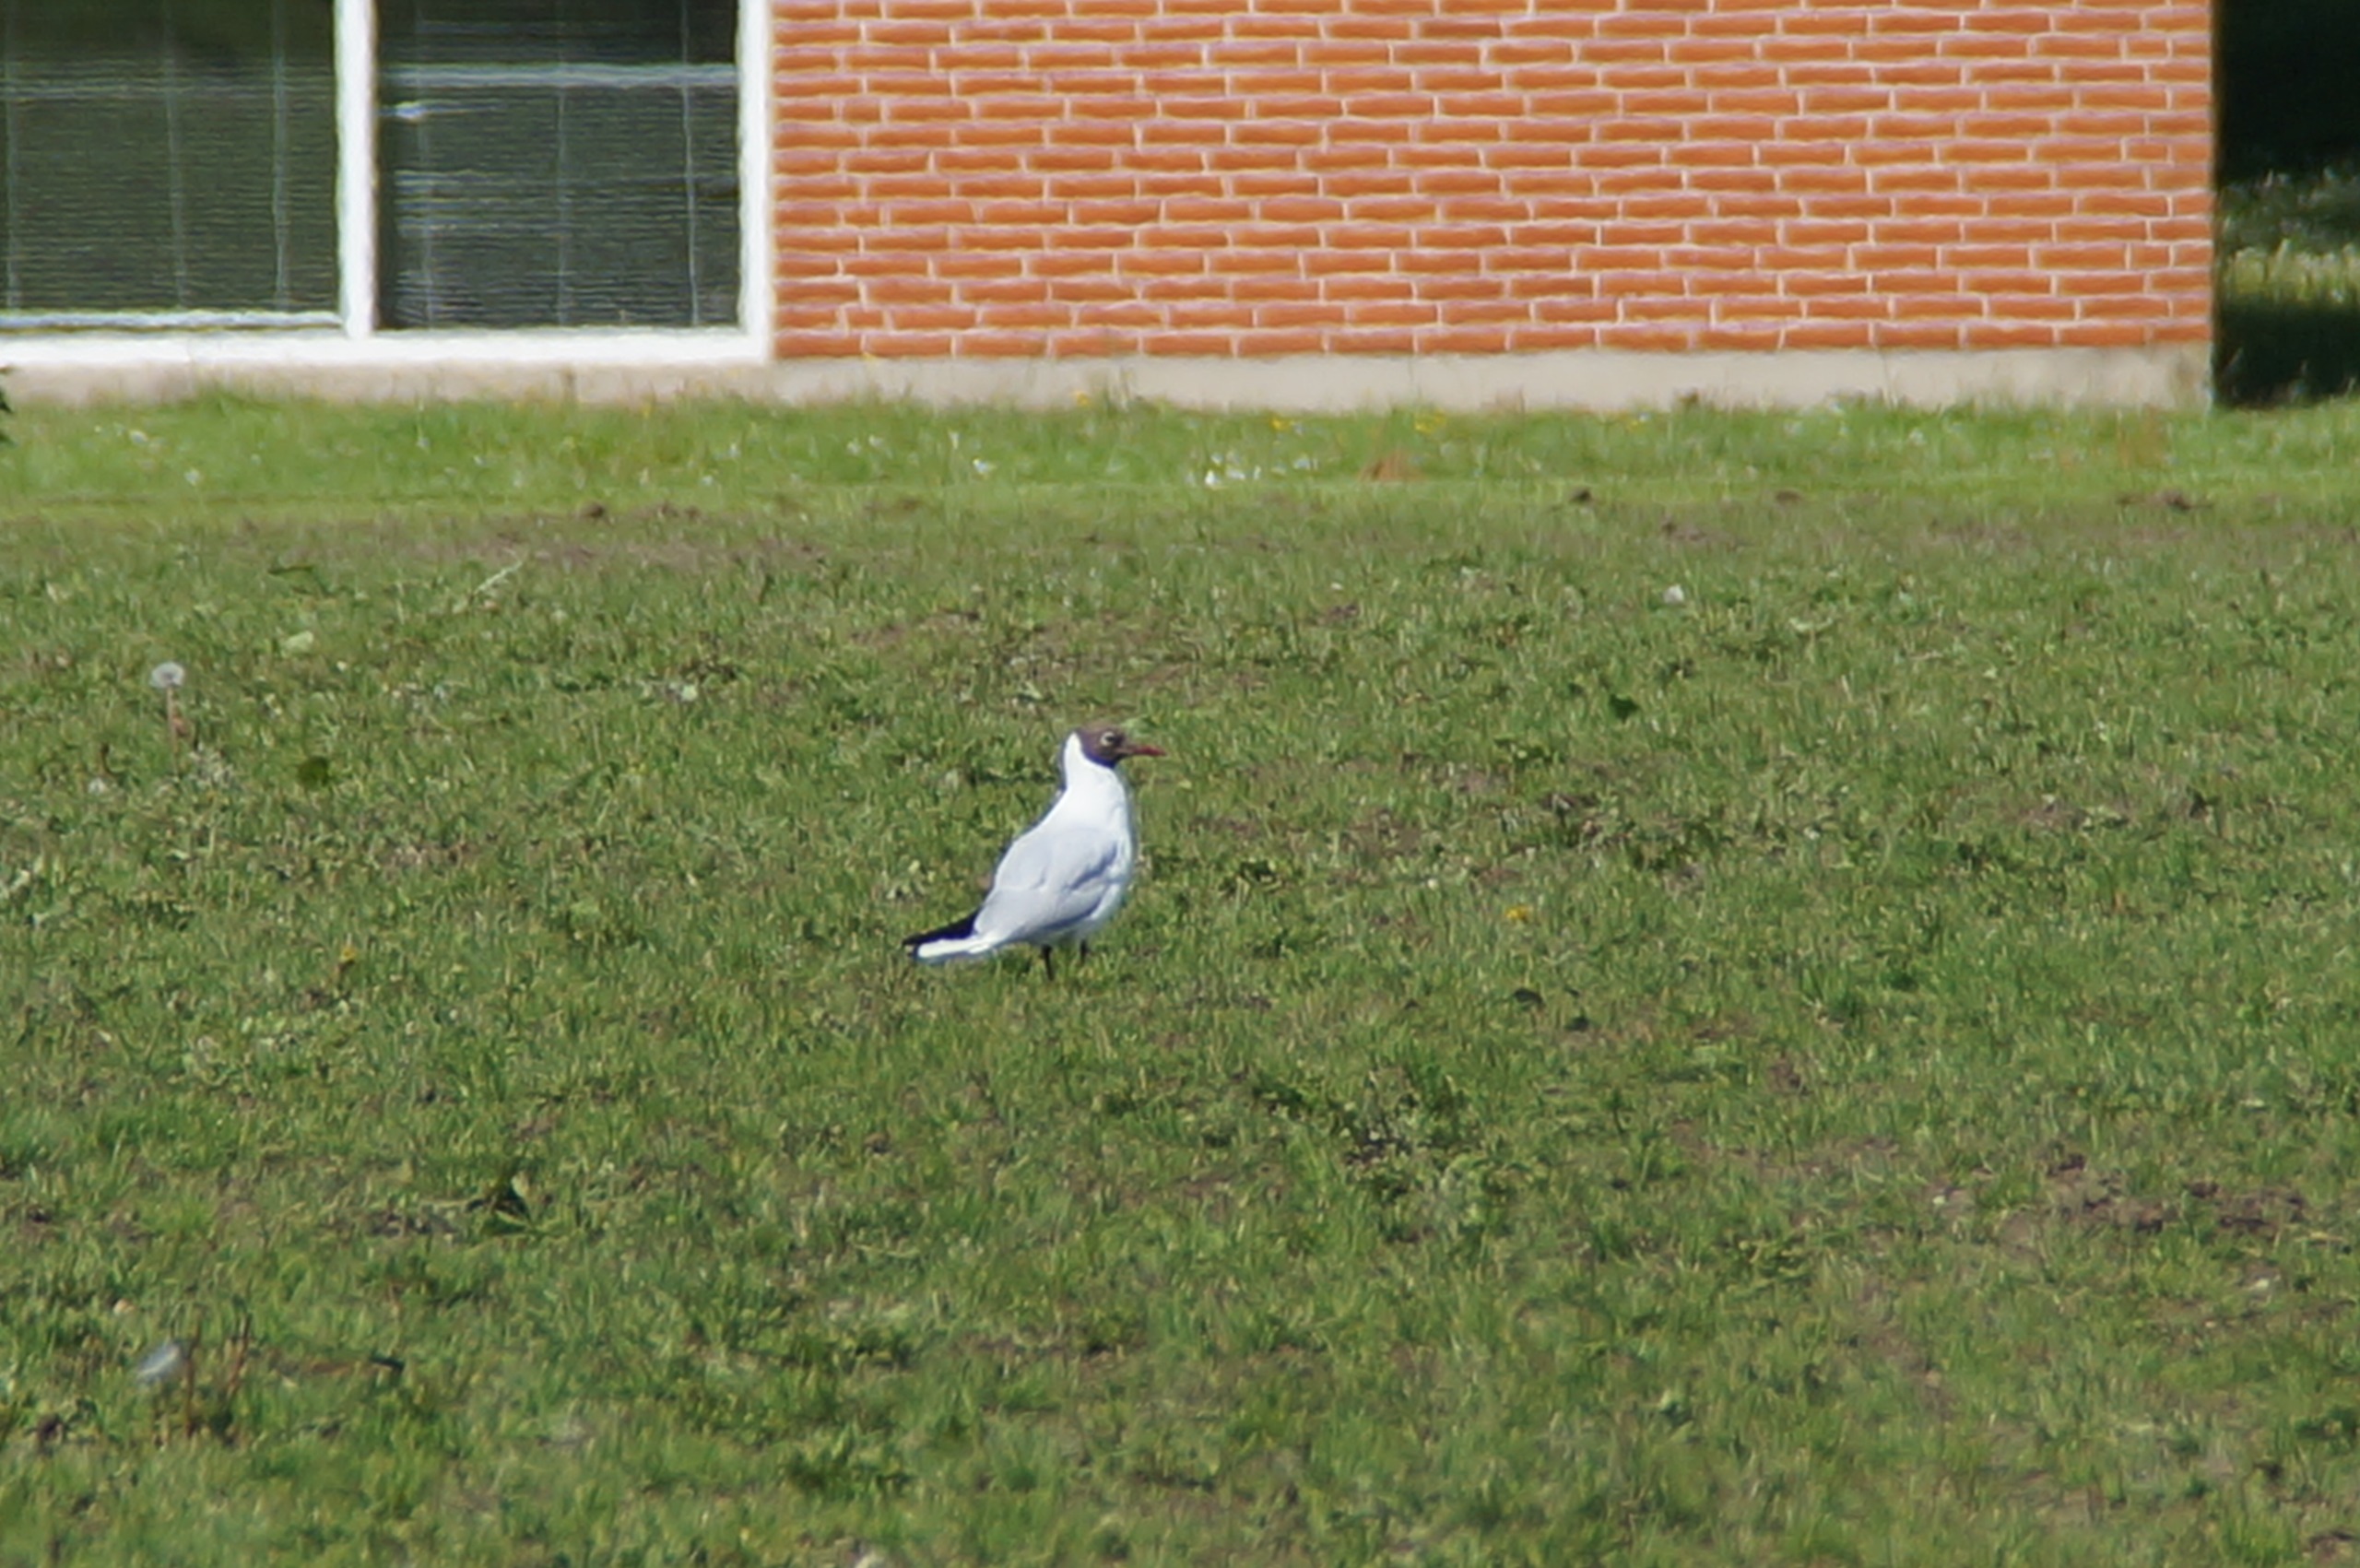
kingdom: Animalia
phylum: Chordata
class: Aves
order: Charadriiformes
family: Laridae
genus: Chroicocephalus
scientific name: Chroicocephalus ridibundus
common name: Hættemåge
